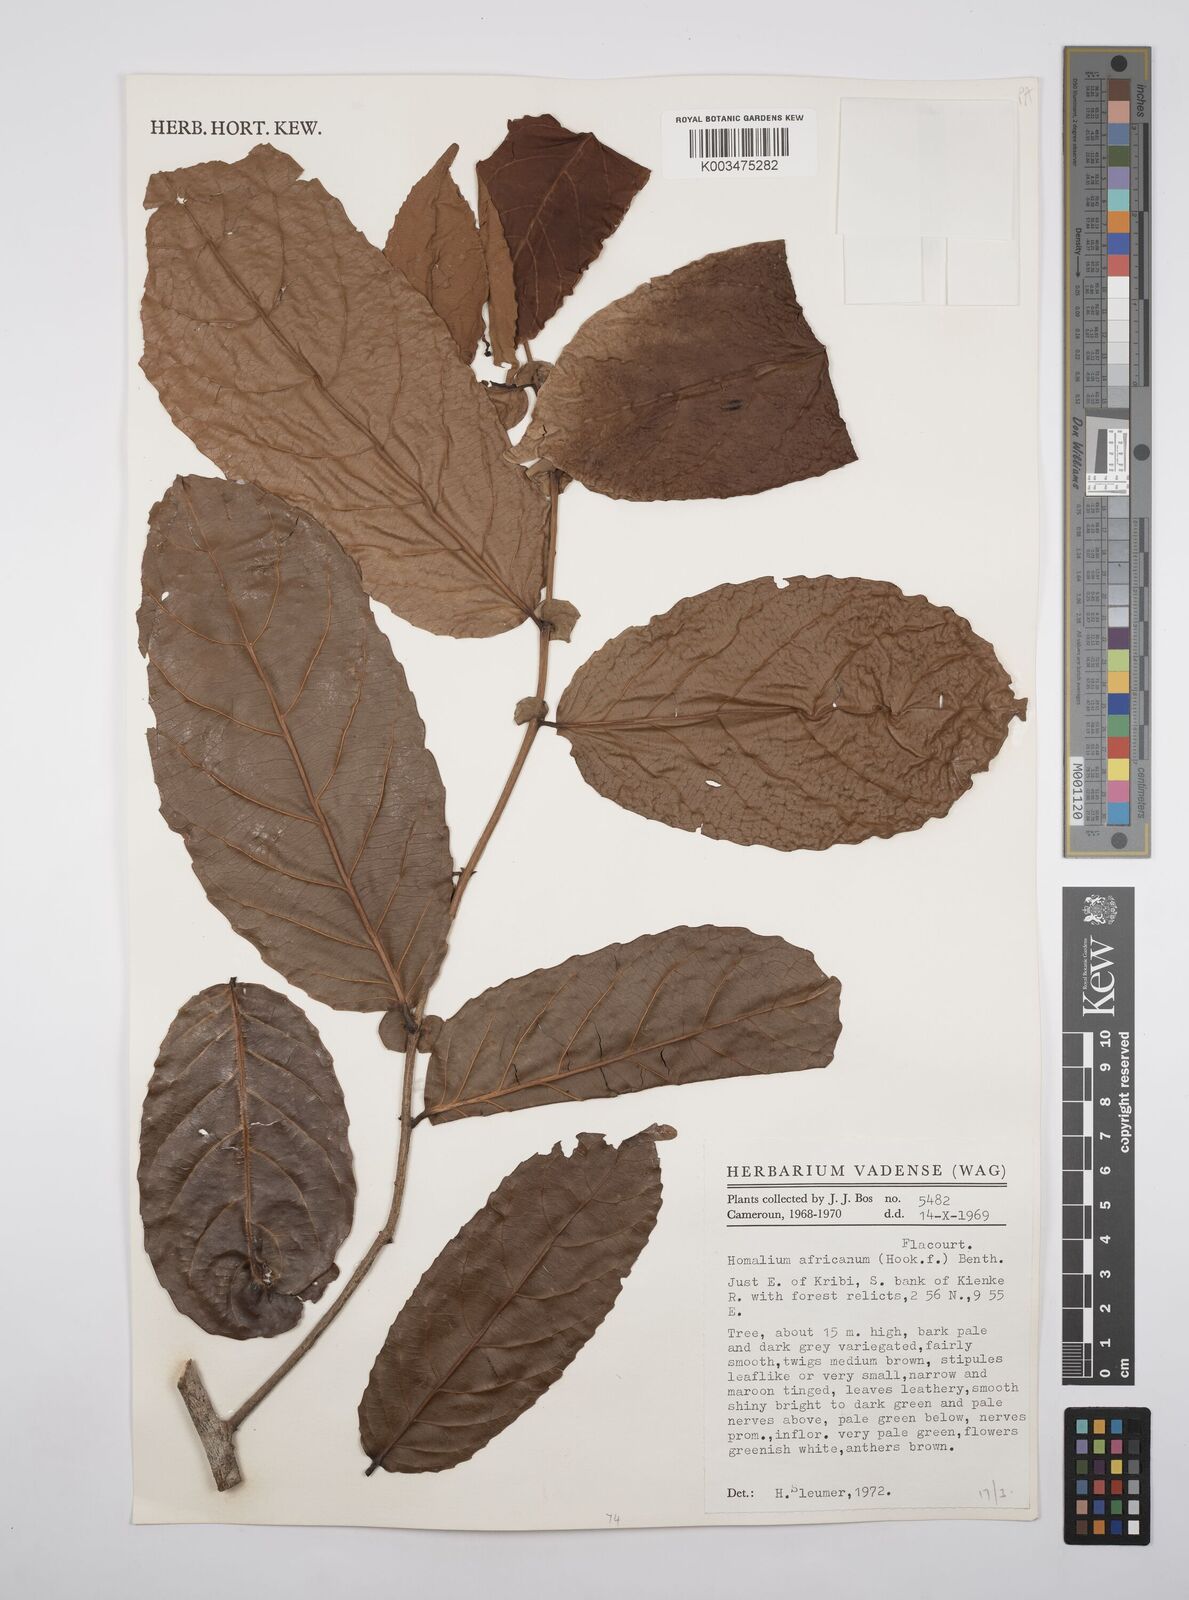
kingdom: Plantae
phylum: Tracheophyta
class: Magnoliopsida
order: Malpighiales
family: Salicaceae
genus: Homalium
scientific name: Homalium africanum
